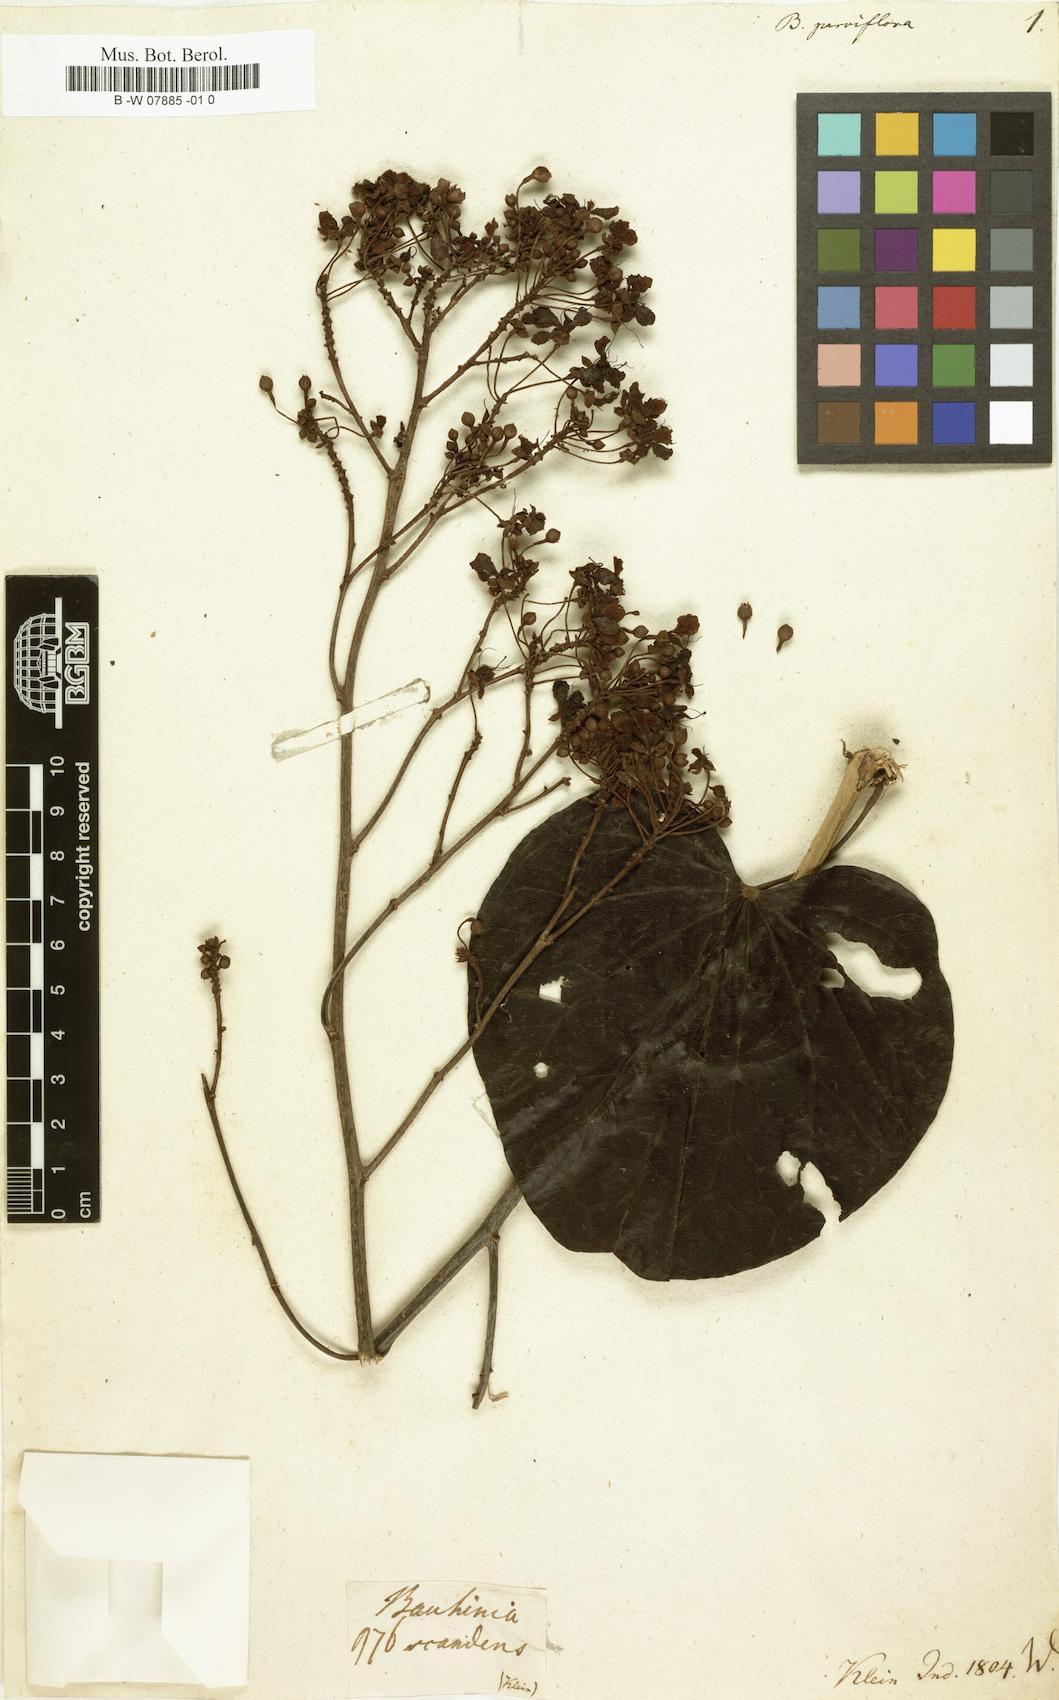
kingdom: Plantae
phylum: Tracheophyta
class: Magnoliopsida
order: Fabales
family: Fabaceae
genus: Bauhinia
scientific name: Bauhinia racemosa
